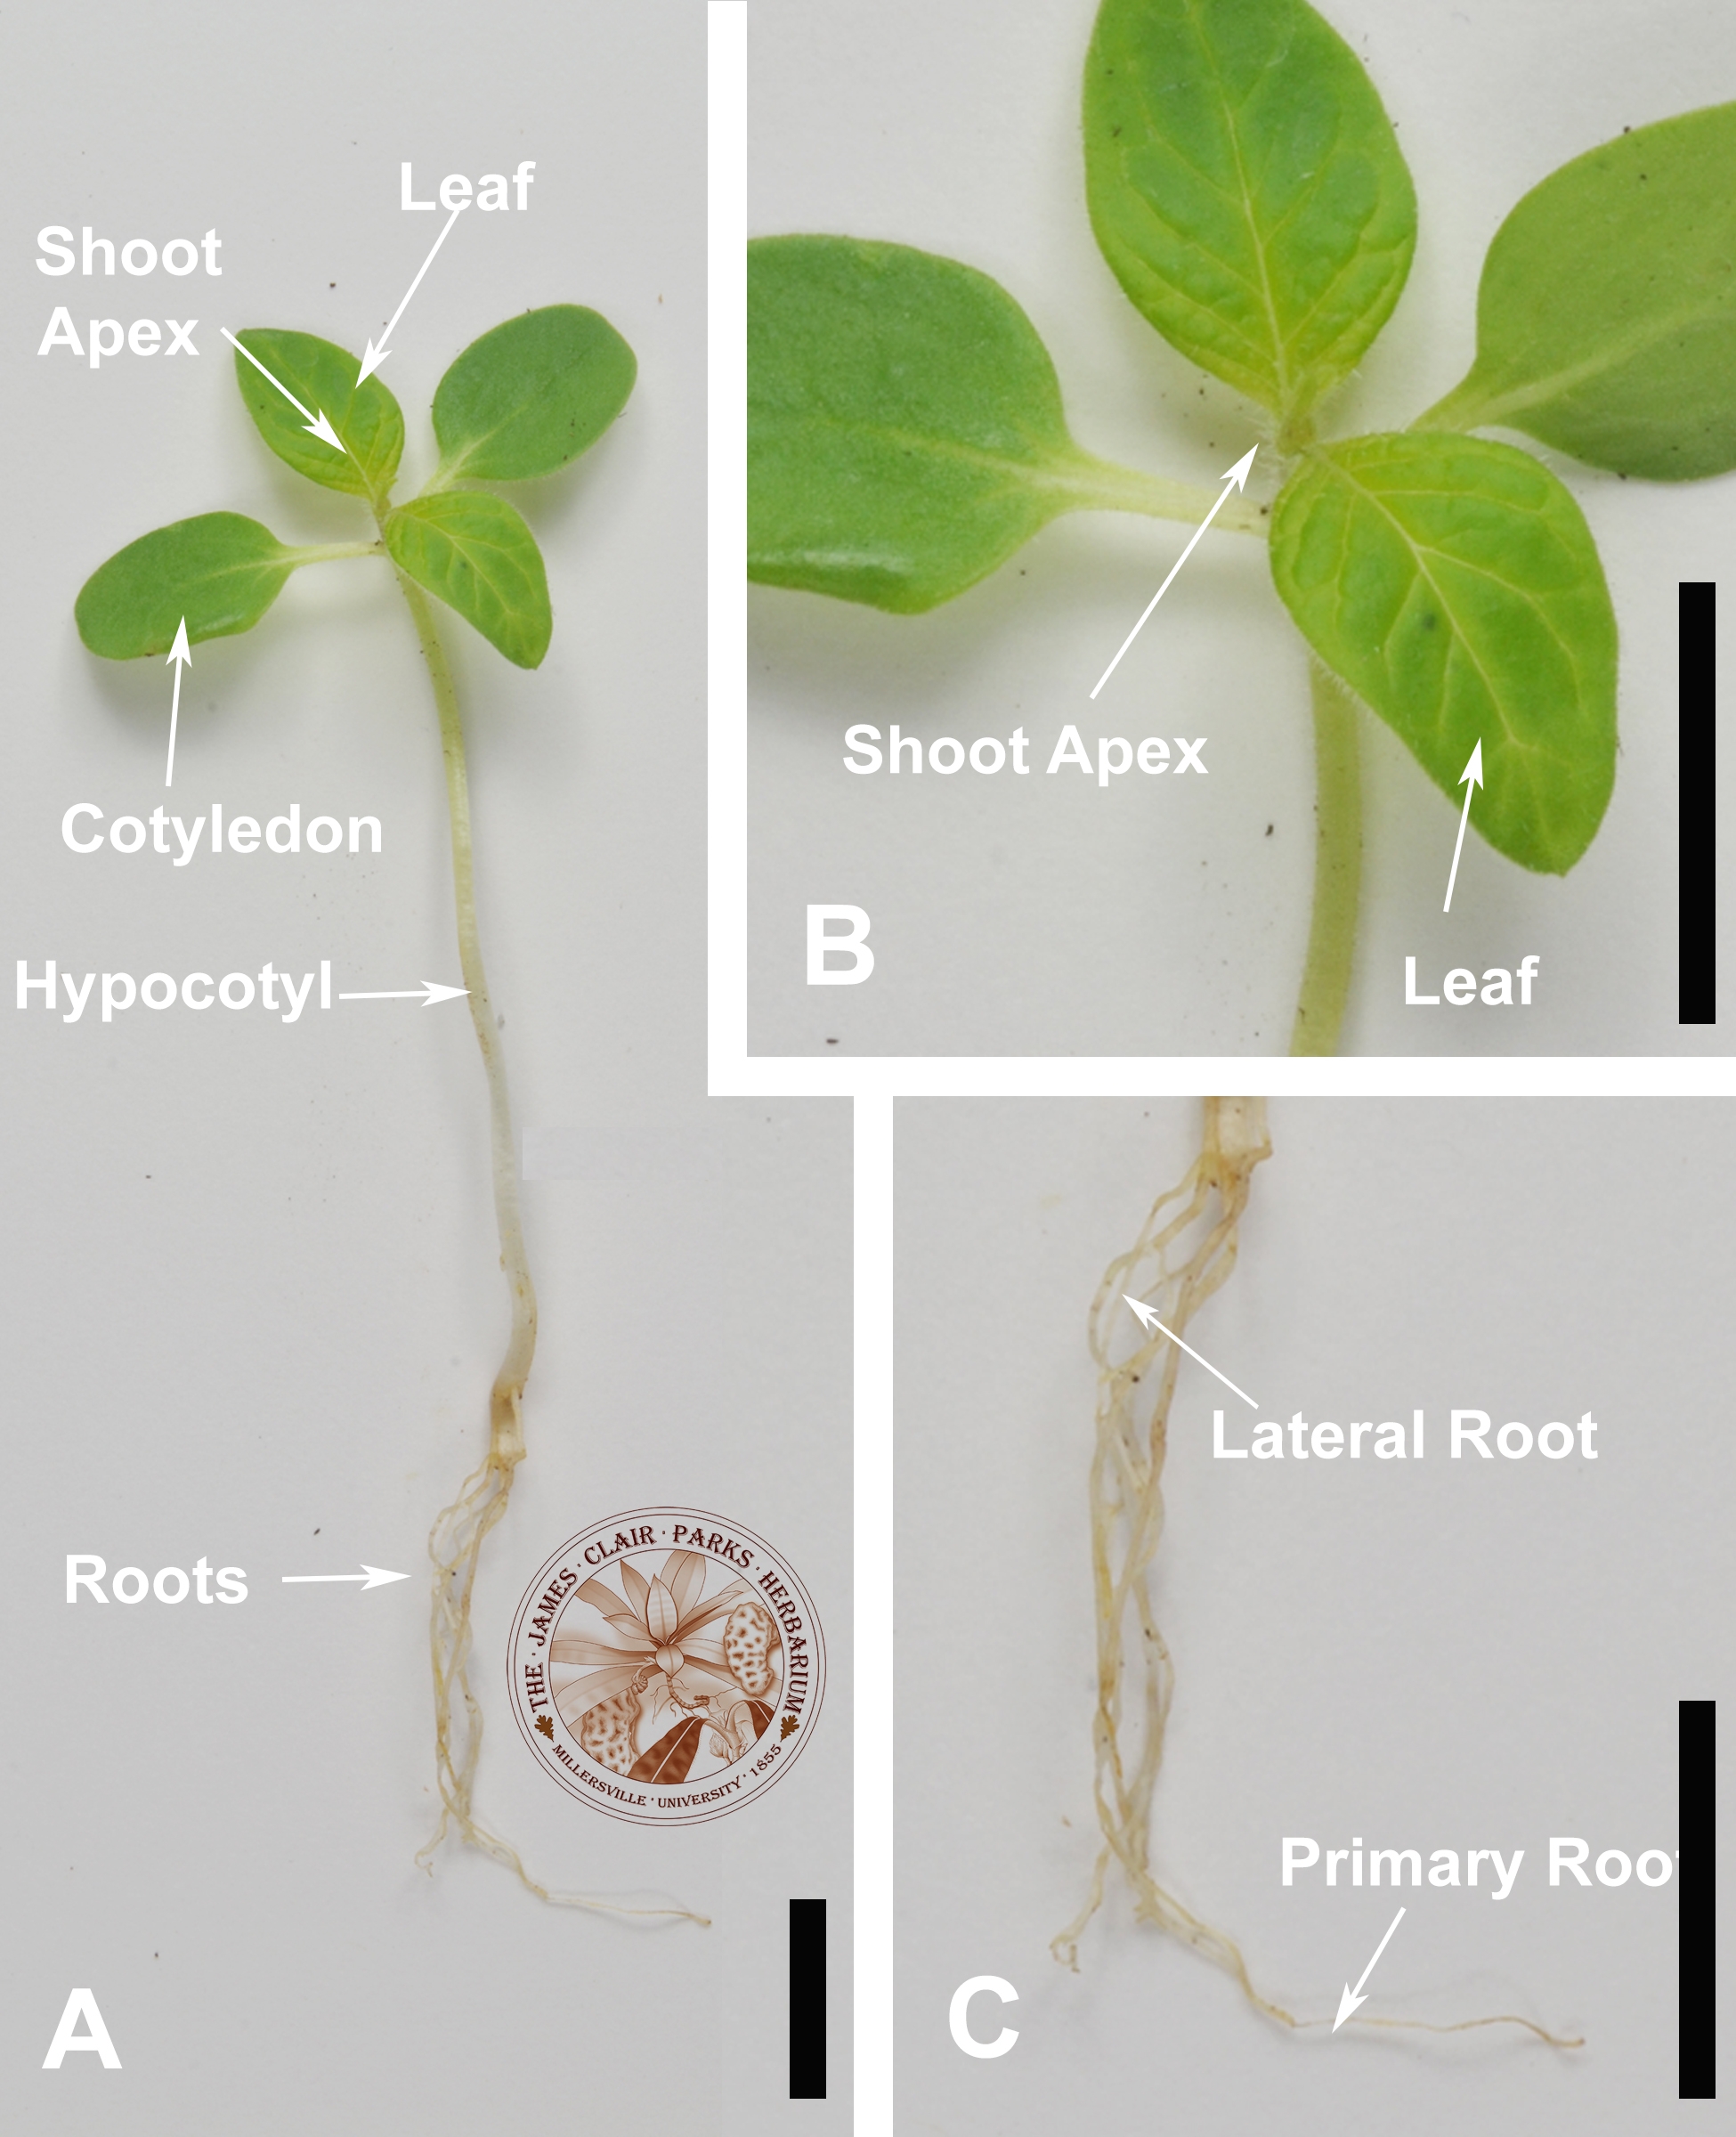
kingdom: Plantae
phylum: Tracheophyta
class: Magnoliopsida
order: Lamiales
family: Pedaliaceae
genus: Sesamum
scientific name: Sesamum indicum
